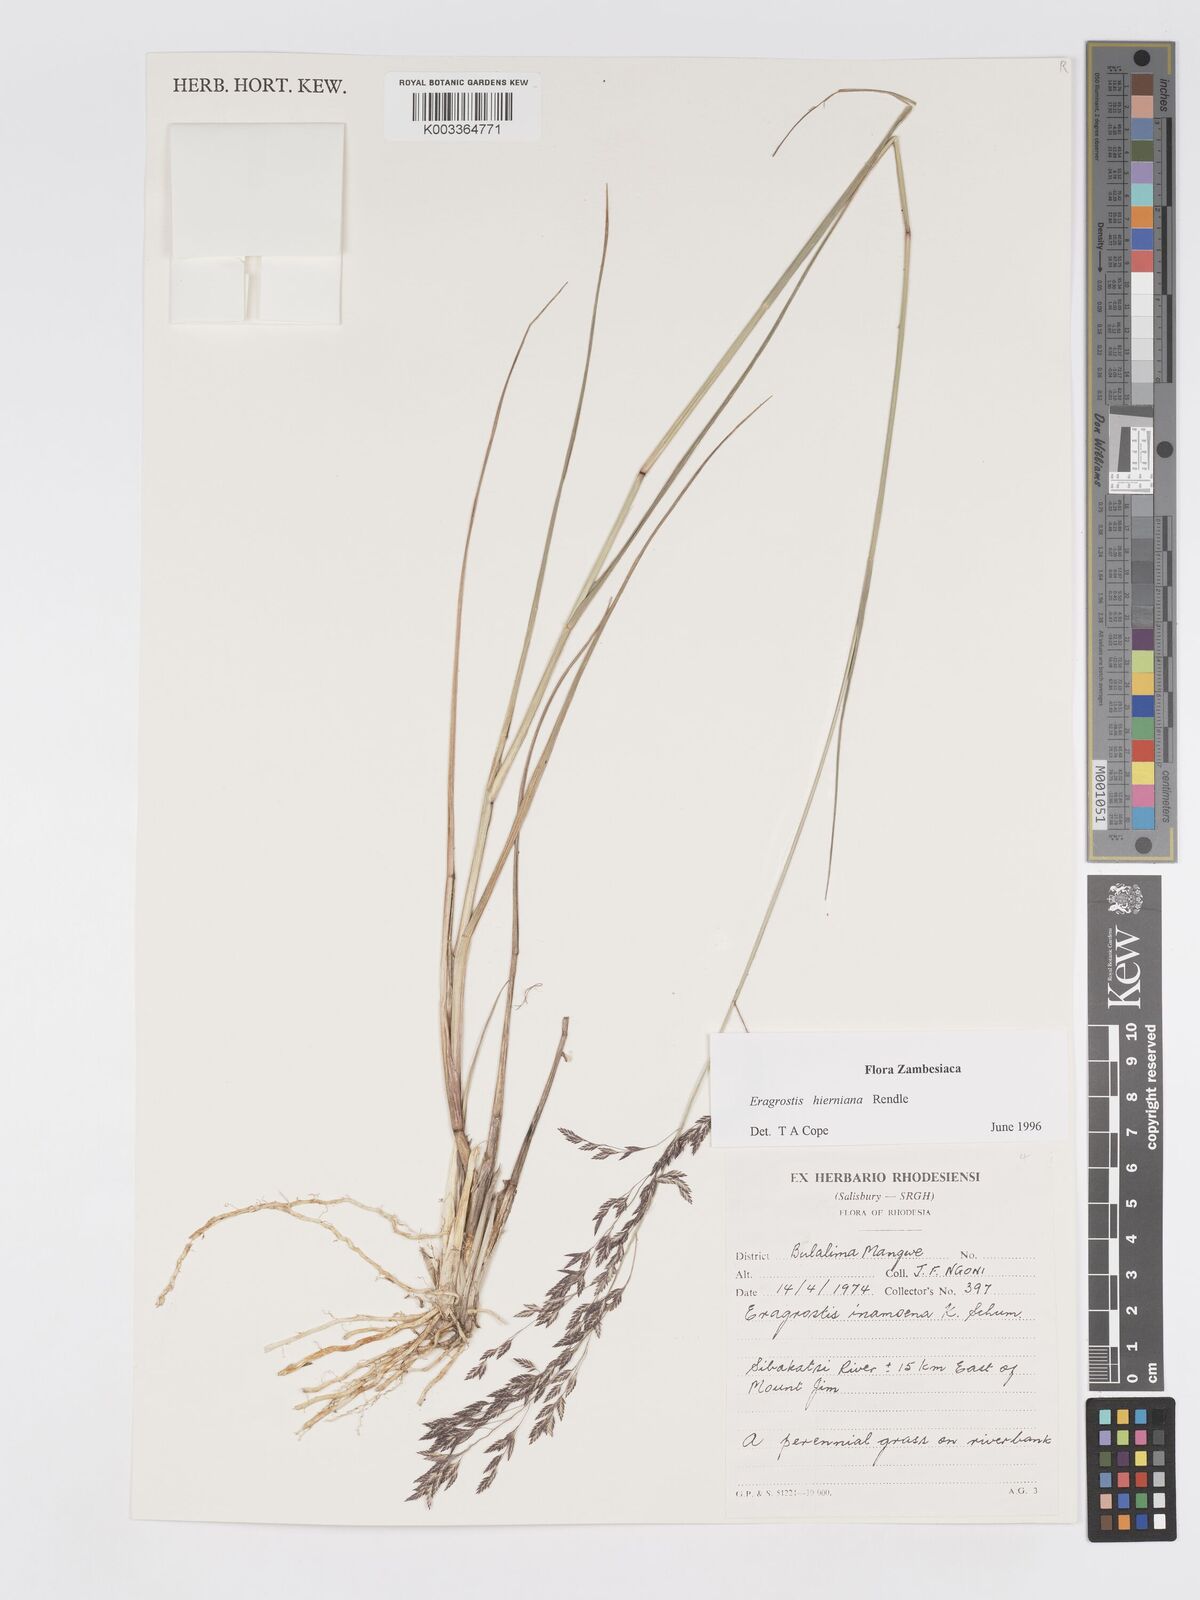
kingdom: Plantae
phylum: Tracheophyta
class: Liliopsida
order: Poales
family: Poaceae
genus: Eragrostis
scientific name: Eragrostis hierniana
